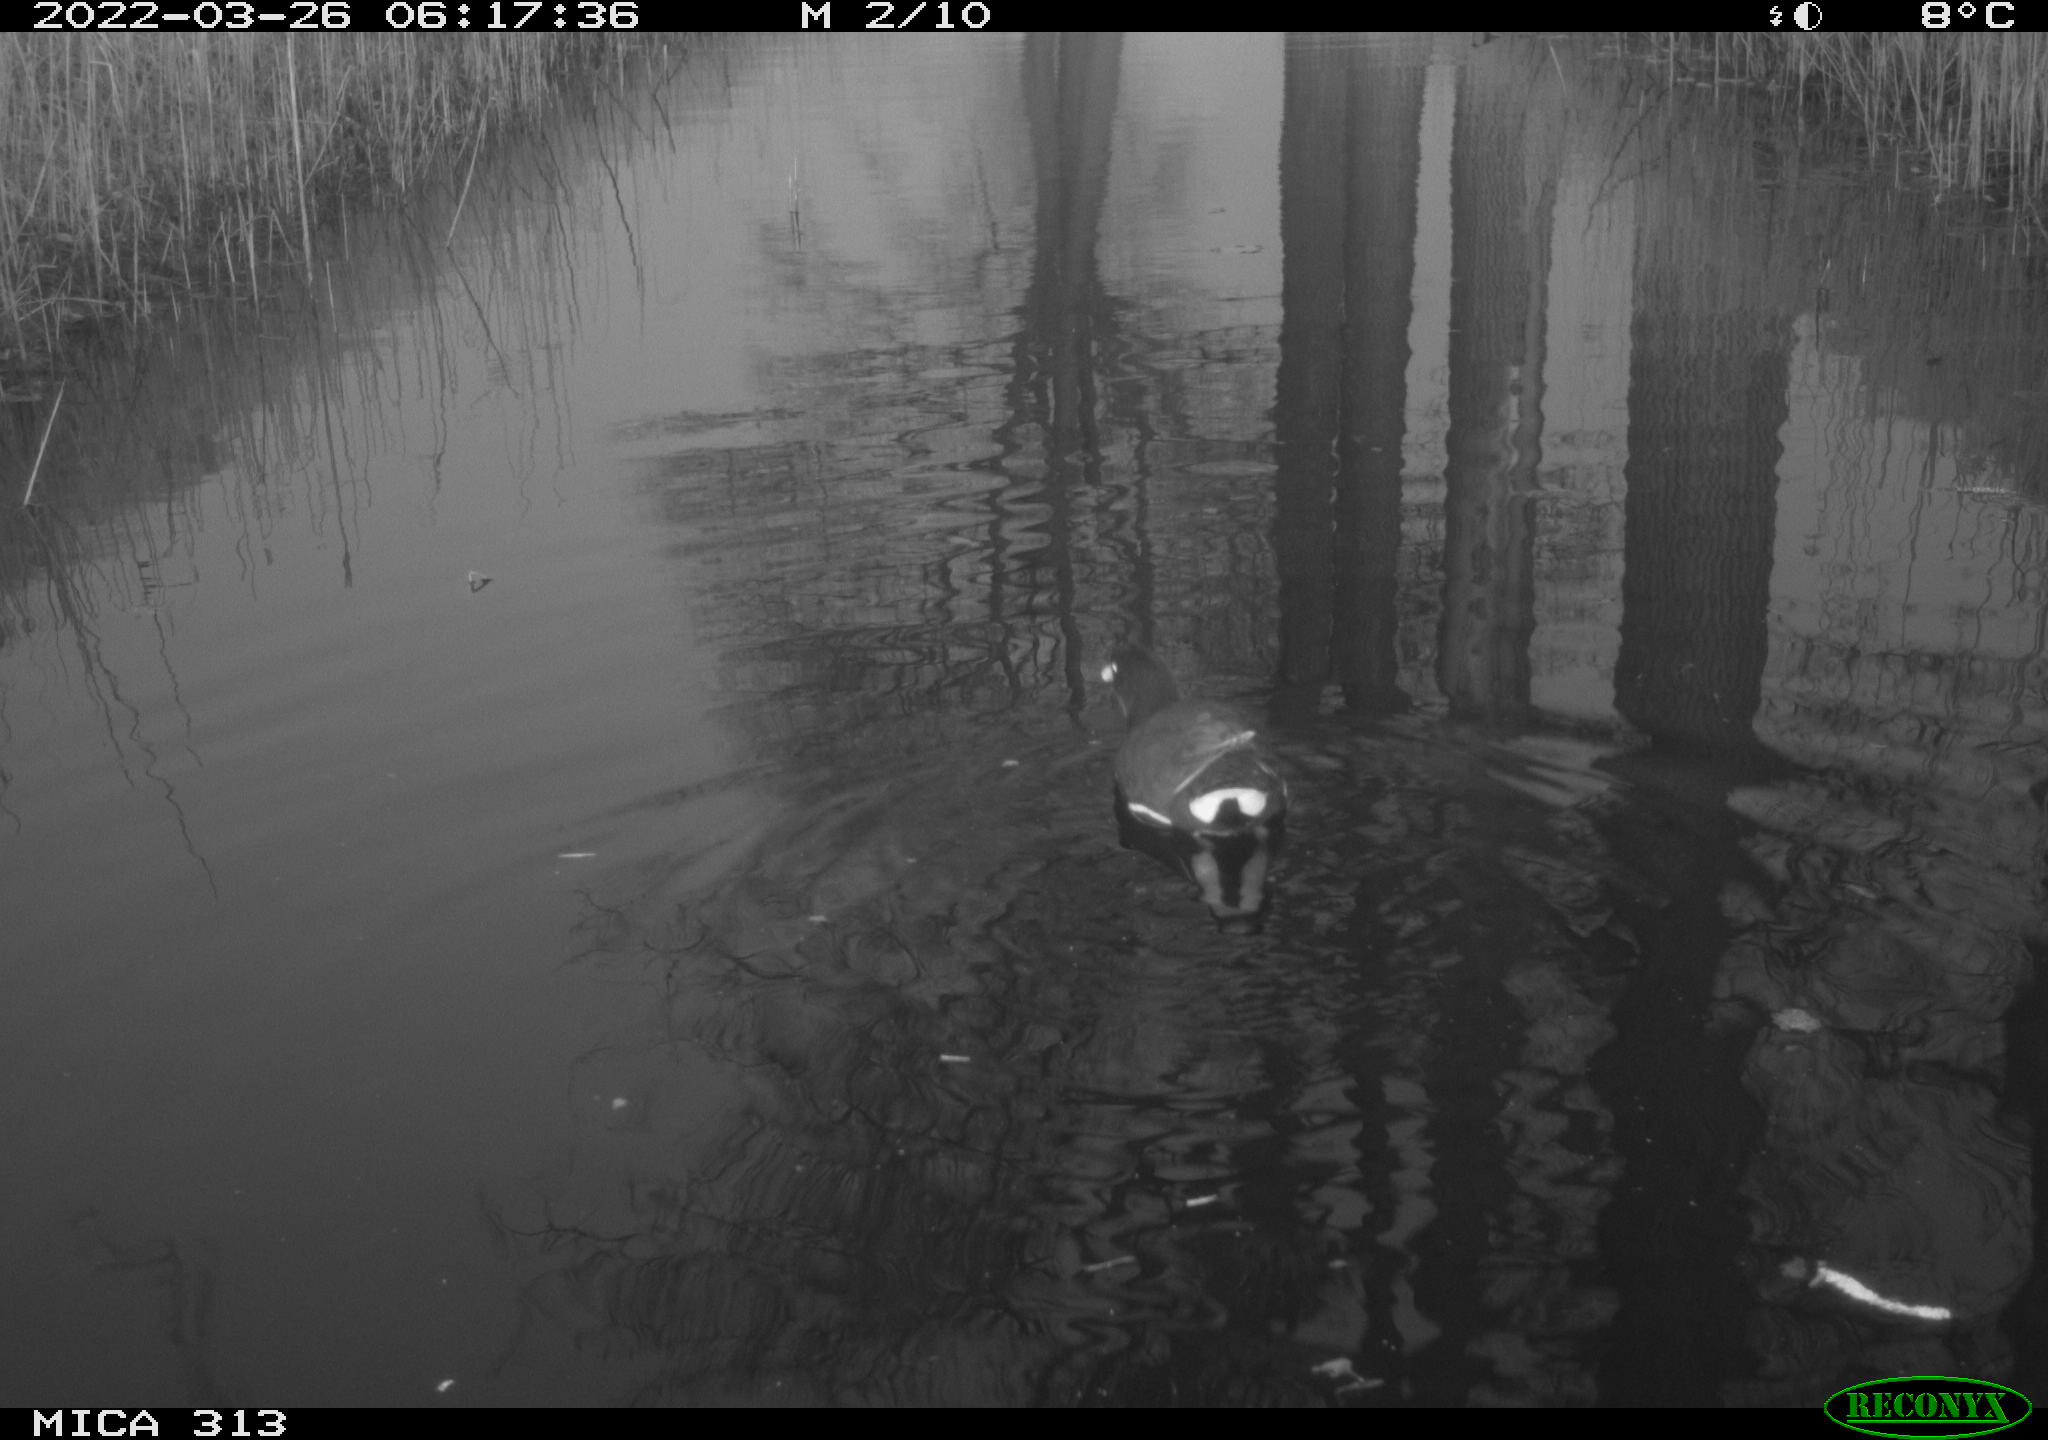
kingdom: Animalia
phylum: Chordata
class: Aves
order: Gruiformes
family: Rallidae
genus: Gallinula
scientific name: Gallinula chloropus
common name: Common moorhen
